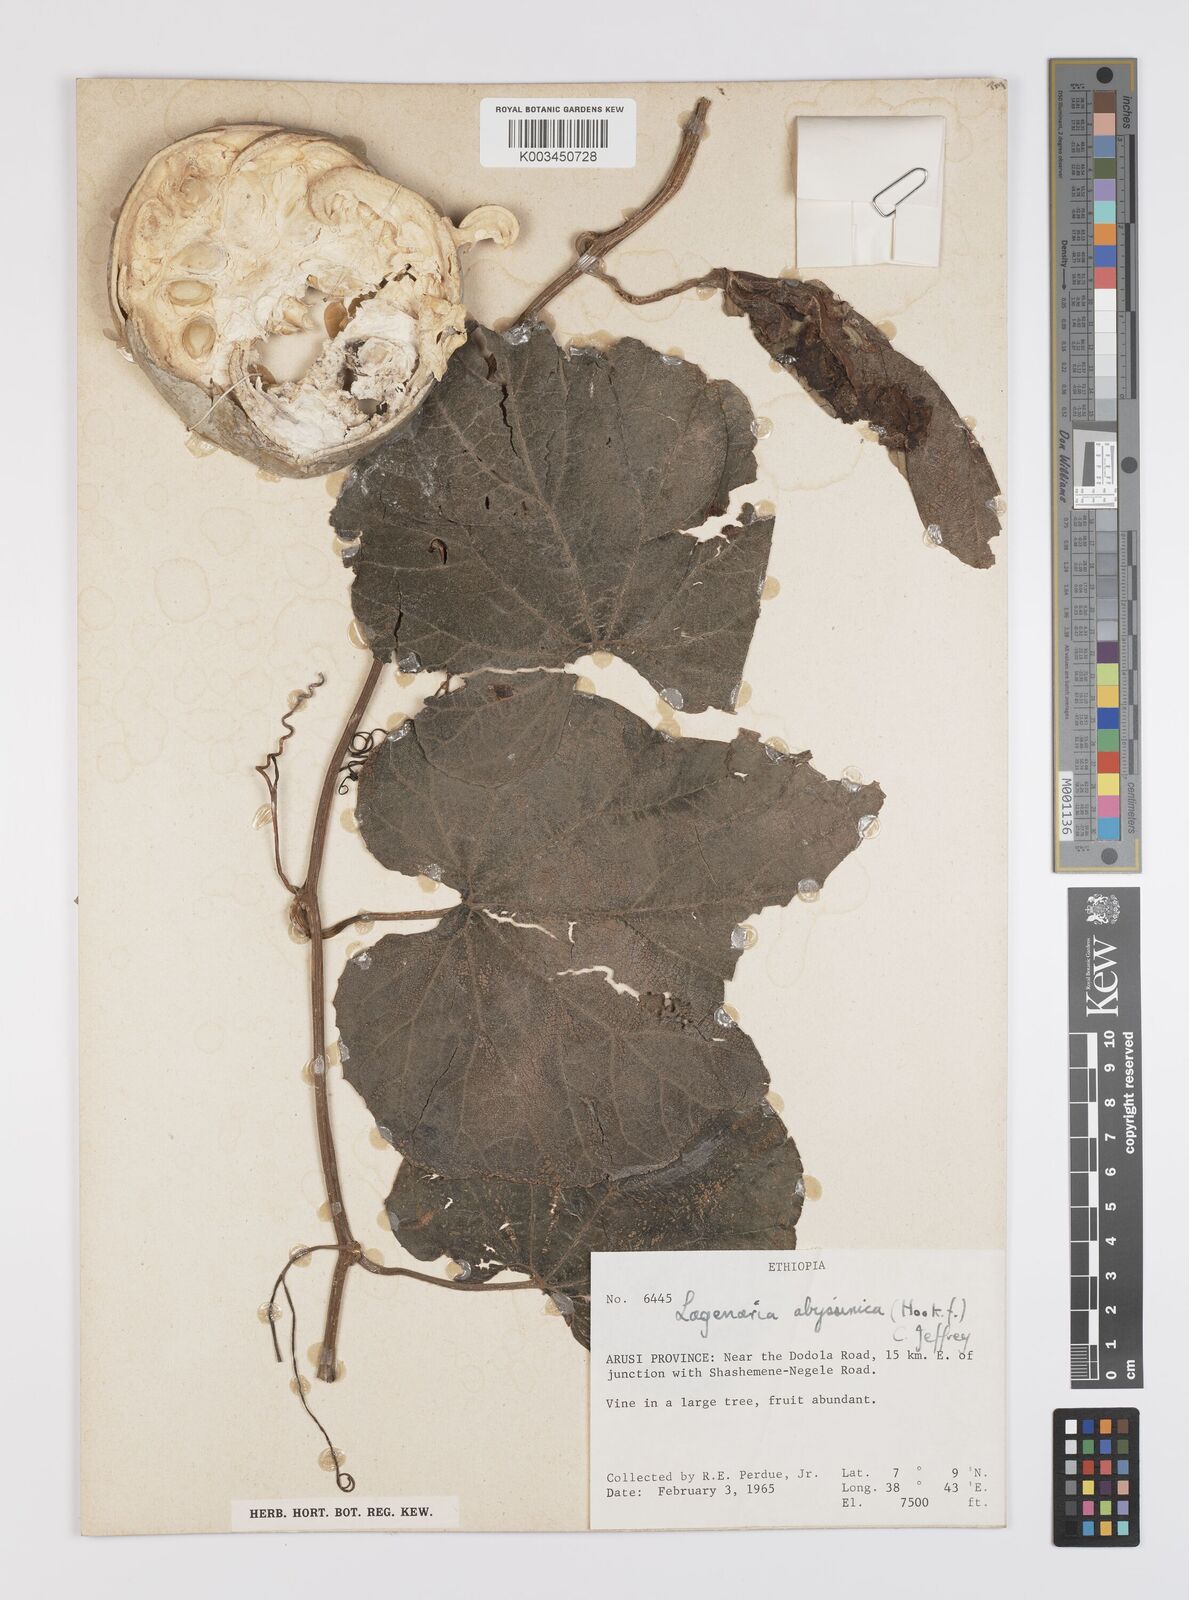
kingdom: Plantae
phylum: Tracheophyta
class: Magnoliopsida
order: Cucurbitales
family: Cucurbitaceae
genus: Lagenaria
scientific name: Lagenaria abyssinica
